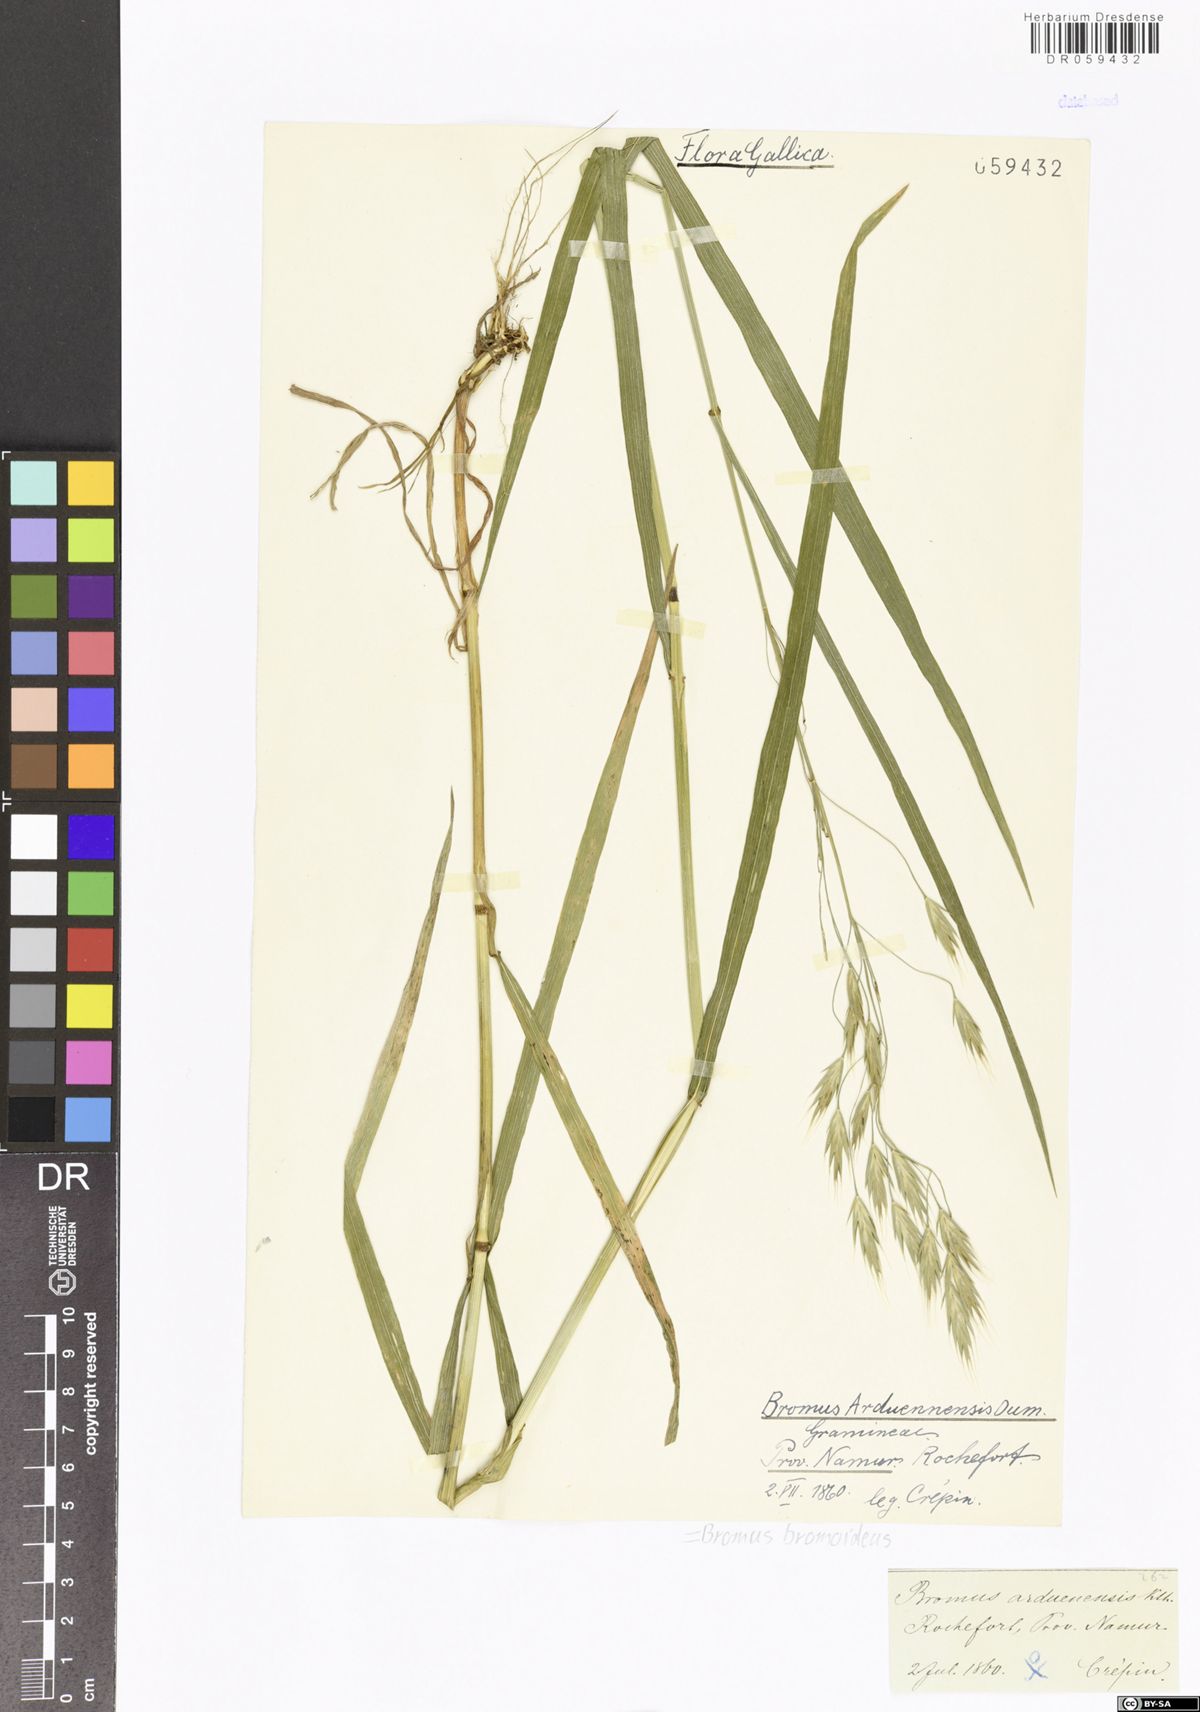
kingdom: Plantae
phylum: Tracheophyta
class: Liliopsida
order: Poales
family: Poaceae
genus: Bromus
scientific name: Bromus bromoideus
